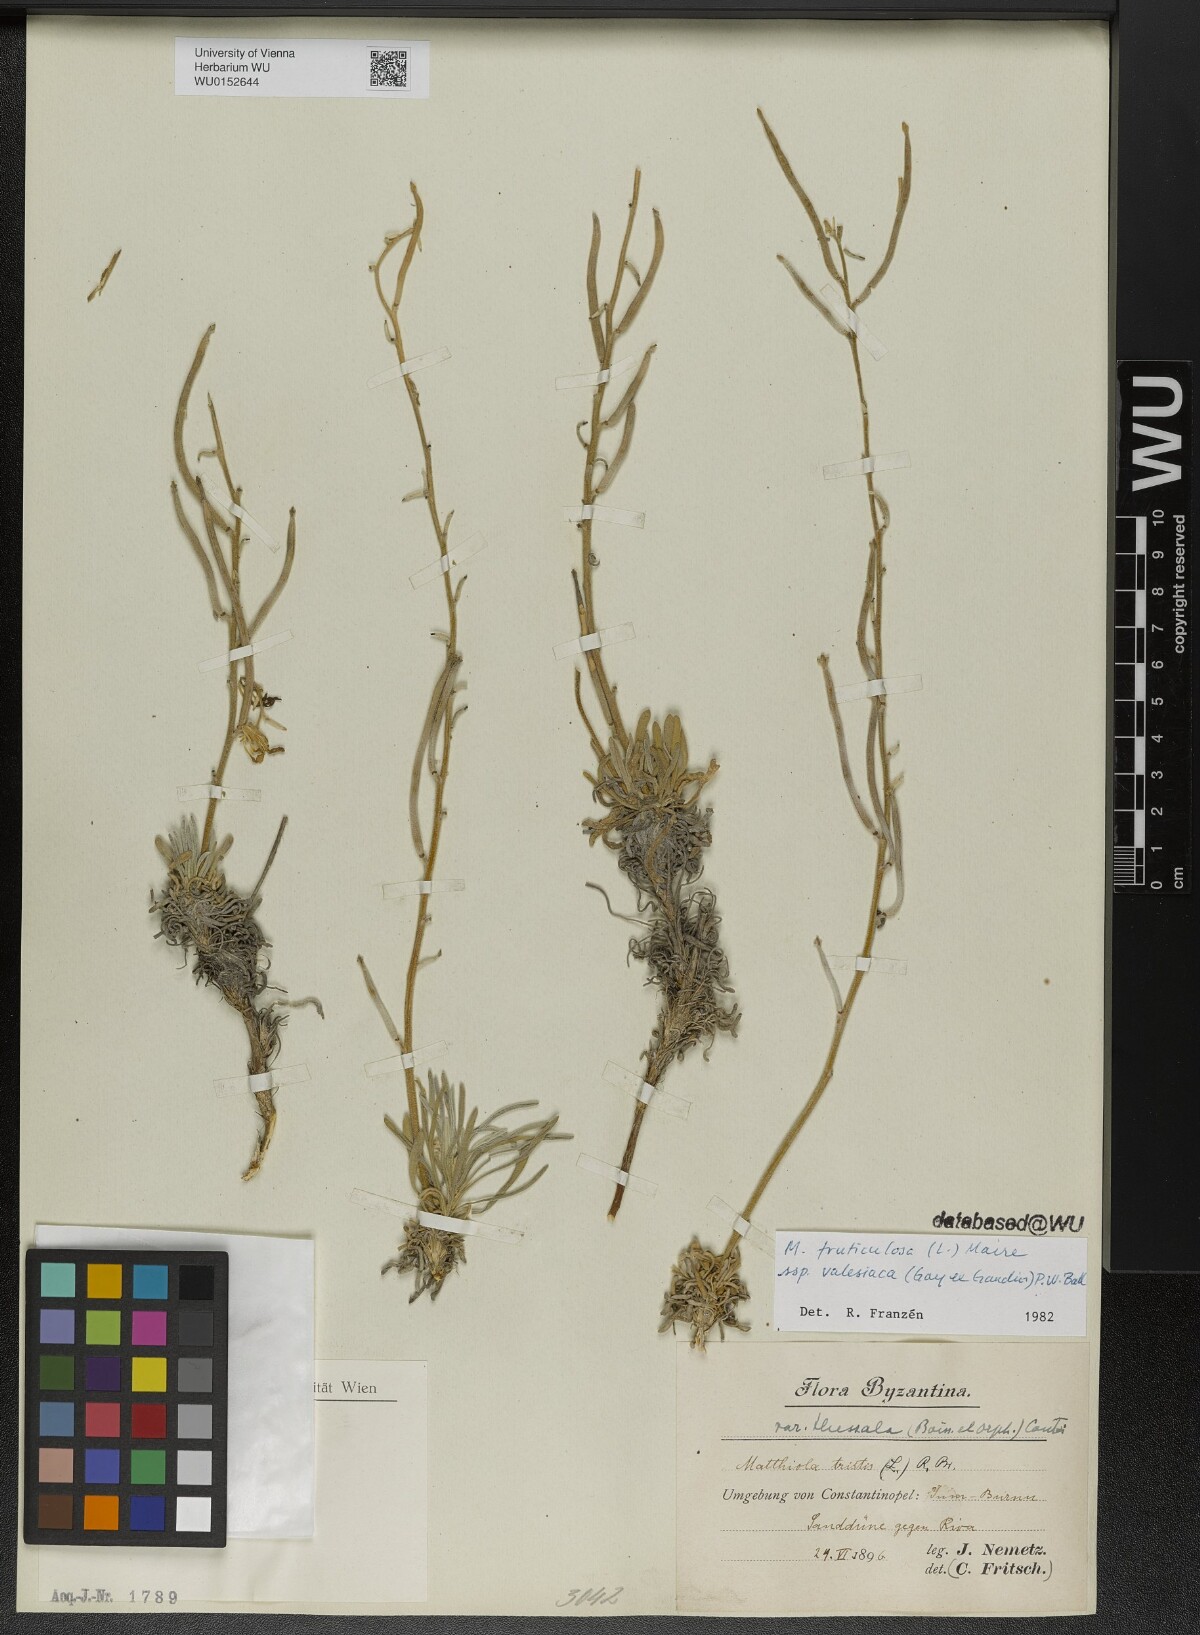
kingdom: Plantae
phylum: Tracheophyta
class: Magnoliopsida
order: Brassicales
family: Brassicaceae
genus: Matthiola
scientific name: Matthiola fruticulosa
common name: Sad stock
